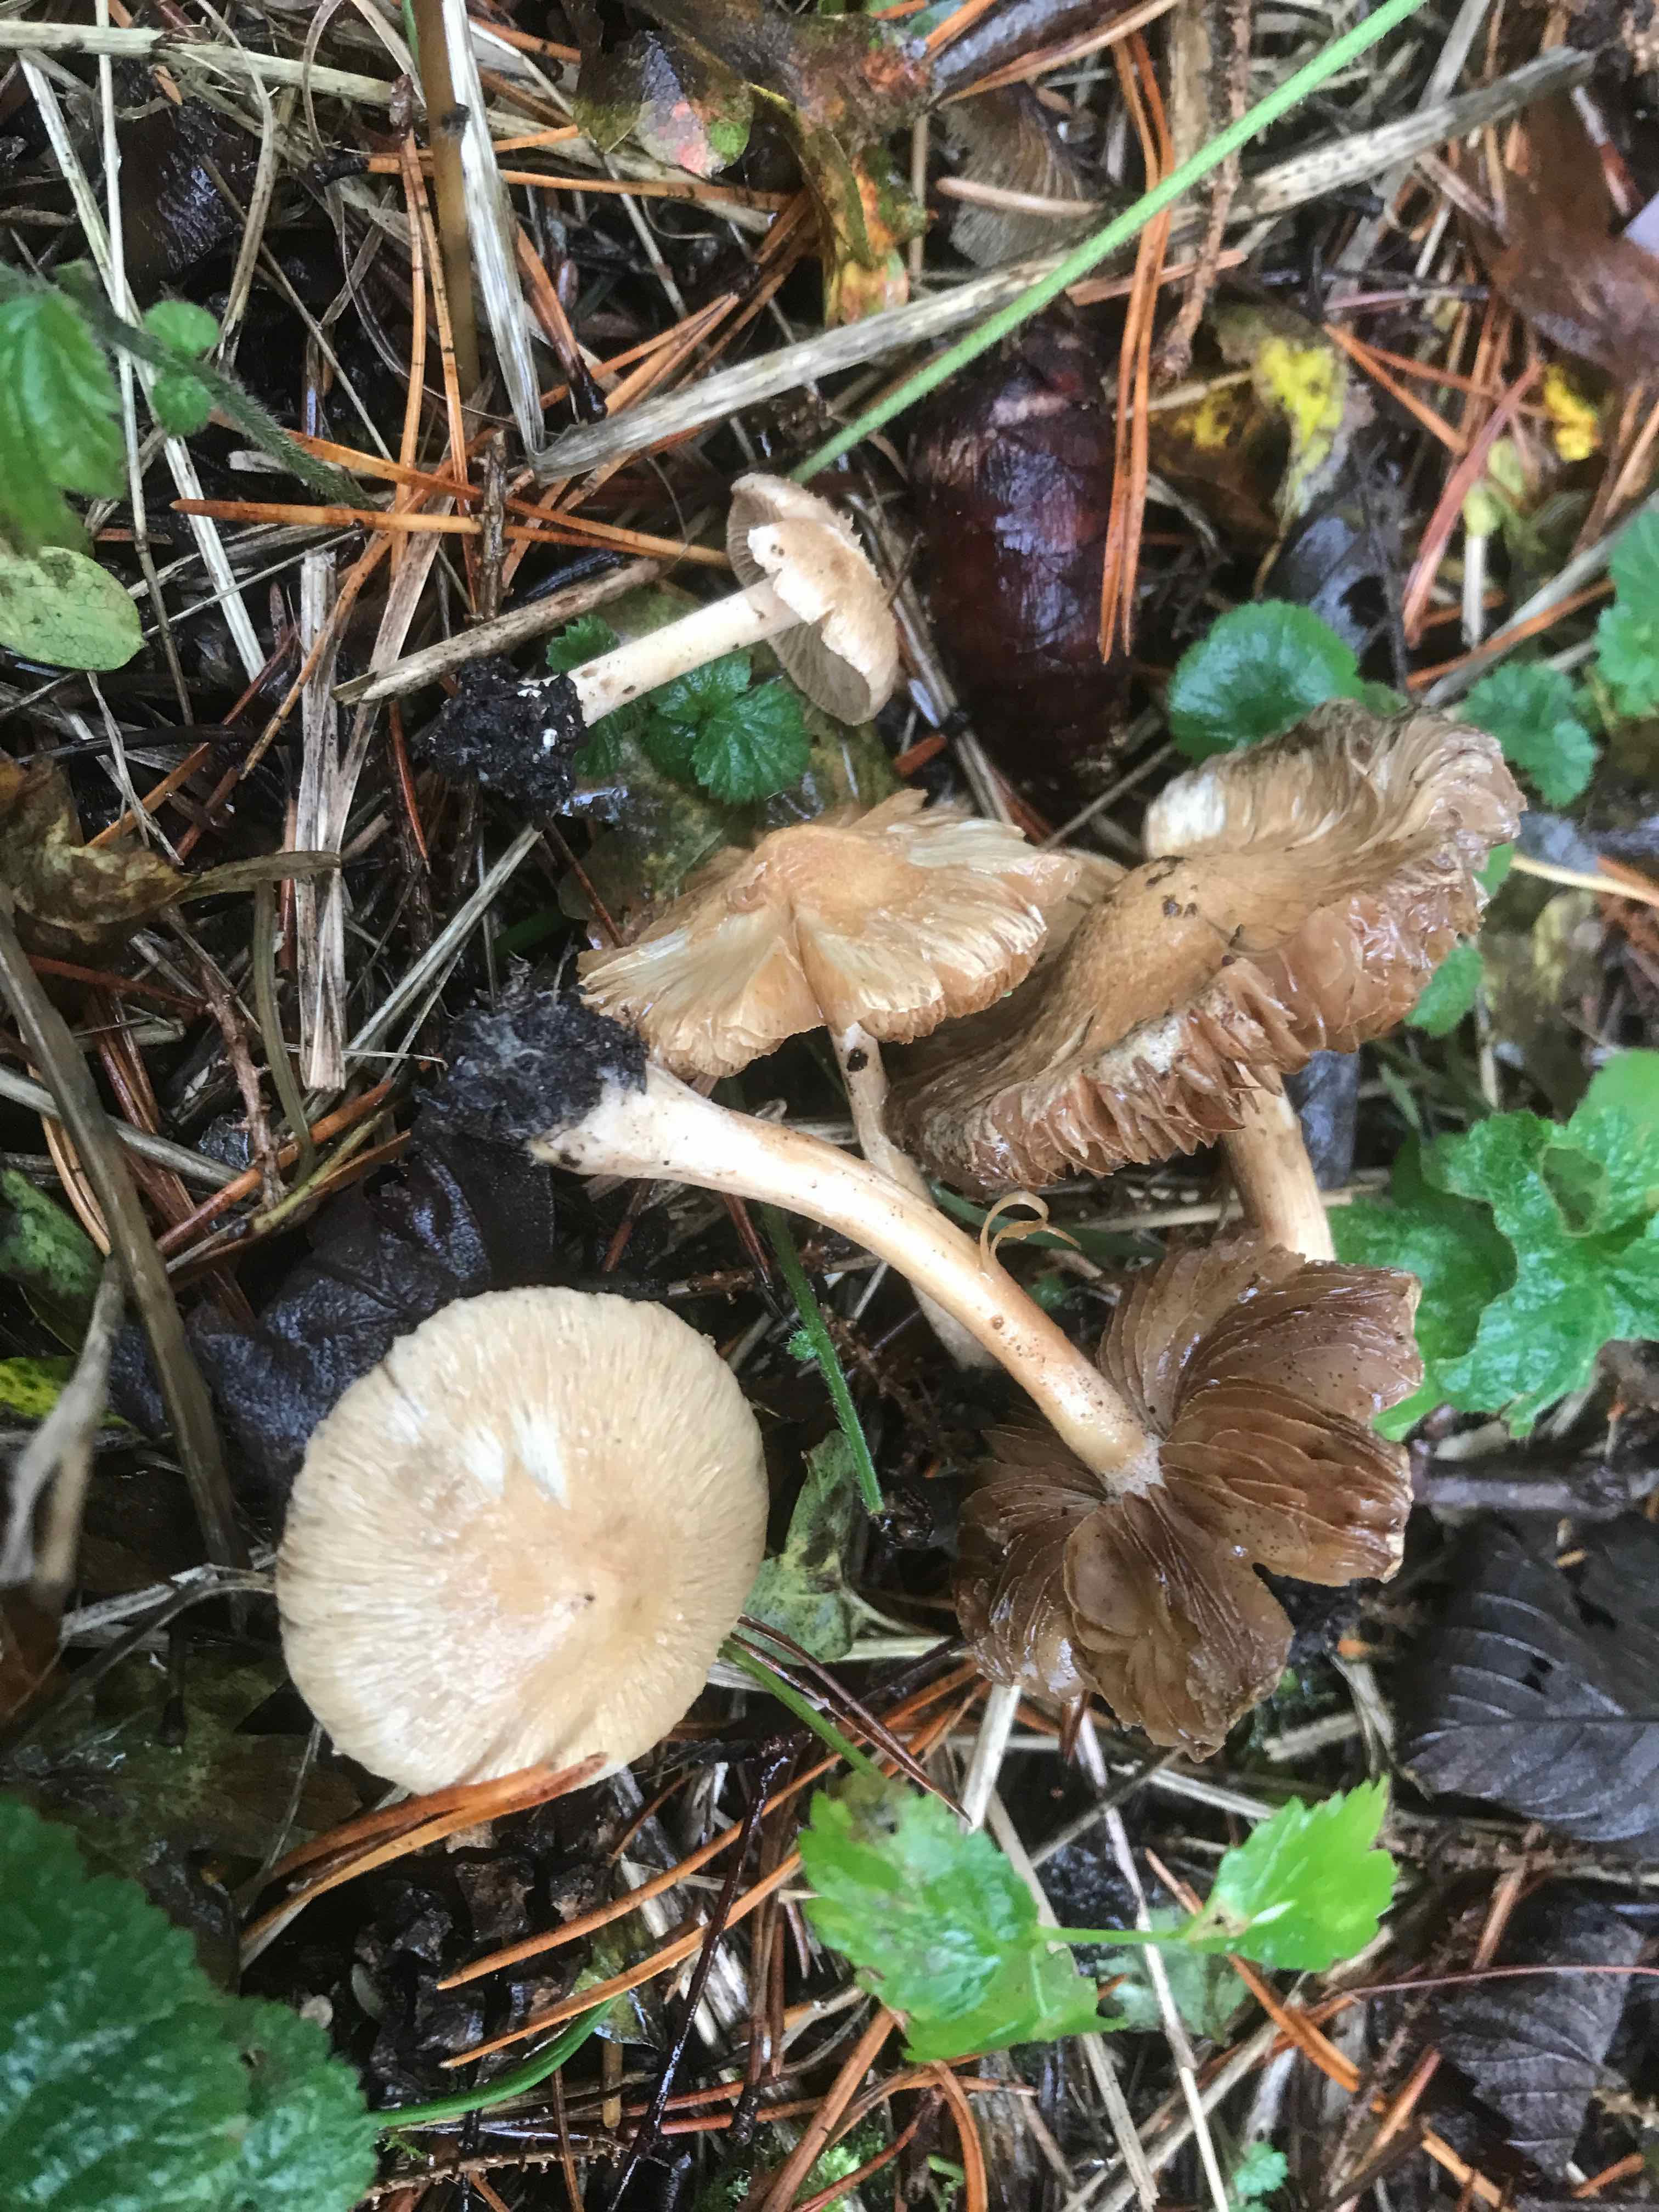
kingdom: Fungi
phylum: Basidiomycota
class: Agaricomycetes
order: Agaricales
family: Inocybaceae
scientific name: Inocybaceae
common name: trævlhatfamilien
